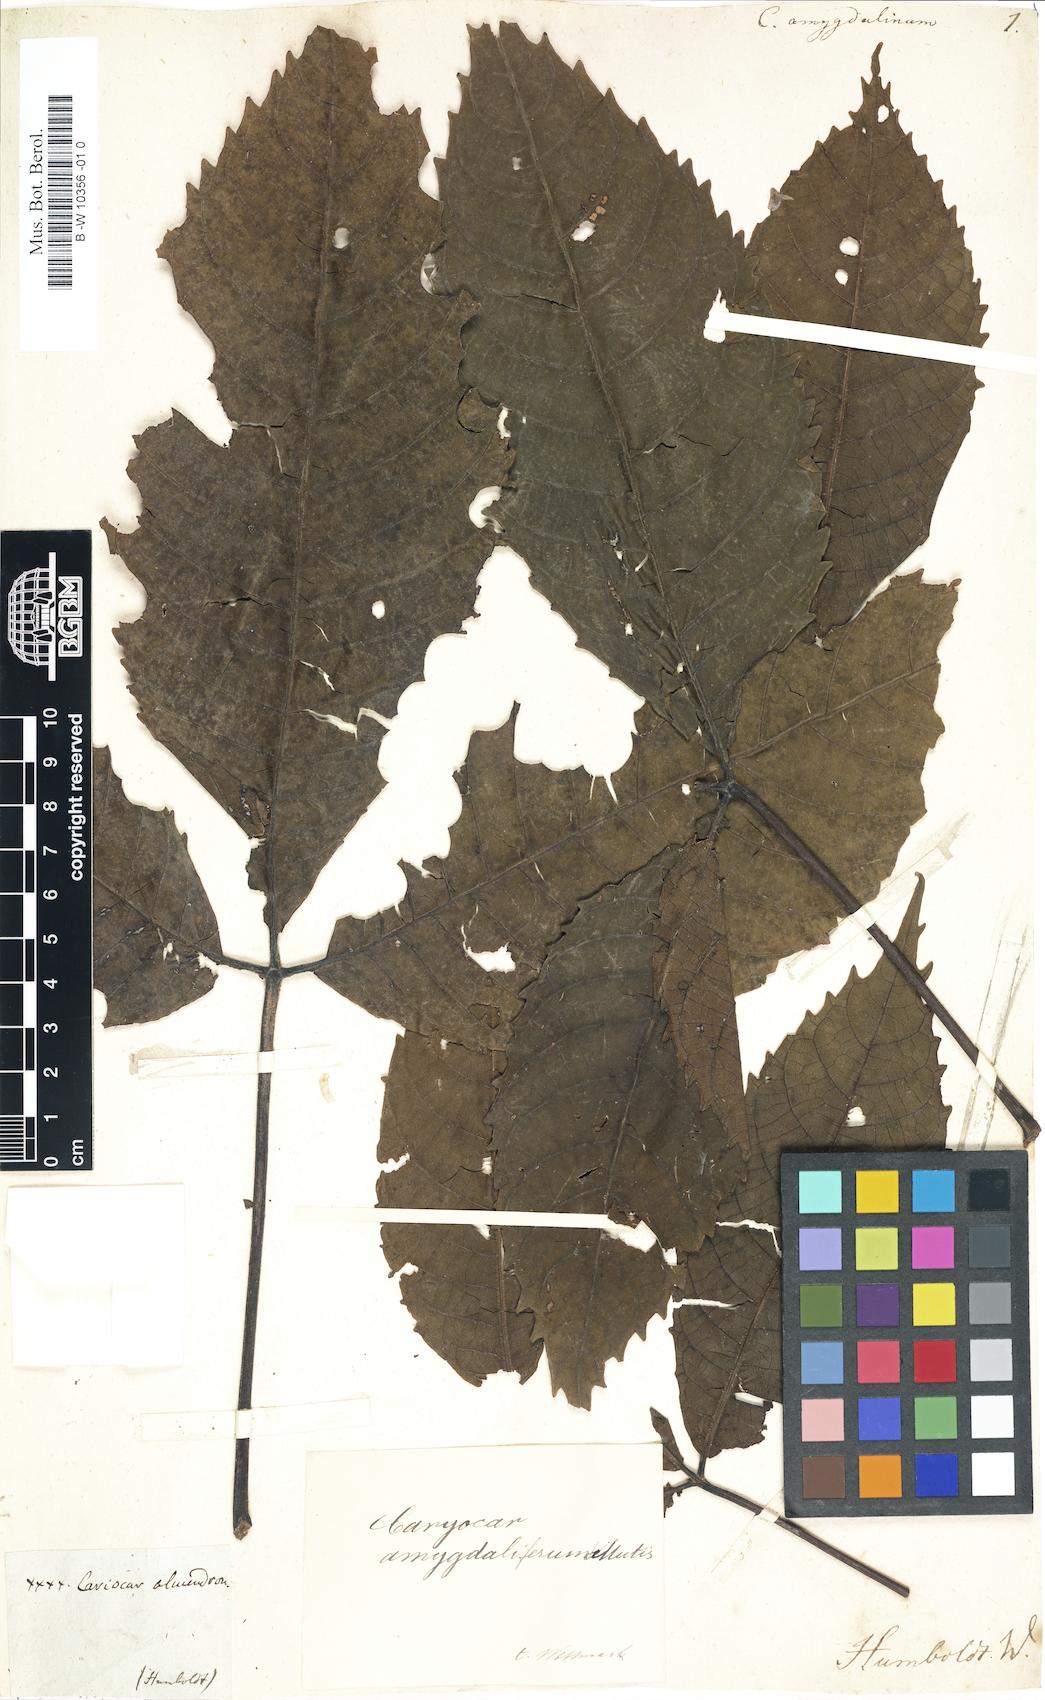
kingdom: Plantae
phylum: Tracheophyta
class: Magnoliopsida
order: Malpighiales
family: Caryocaraceae
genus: Caryocar
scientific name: Caryocar
